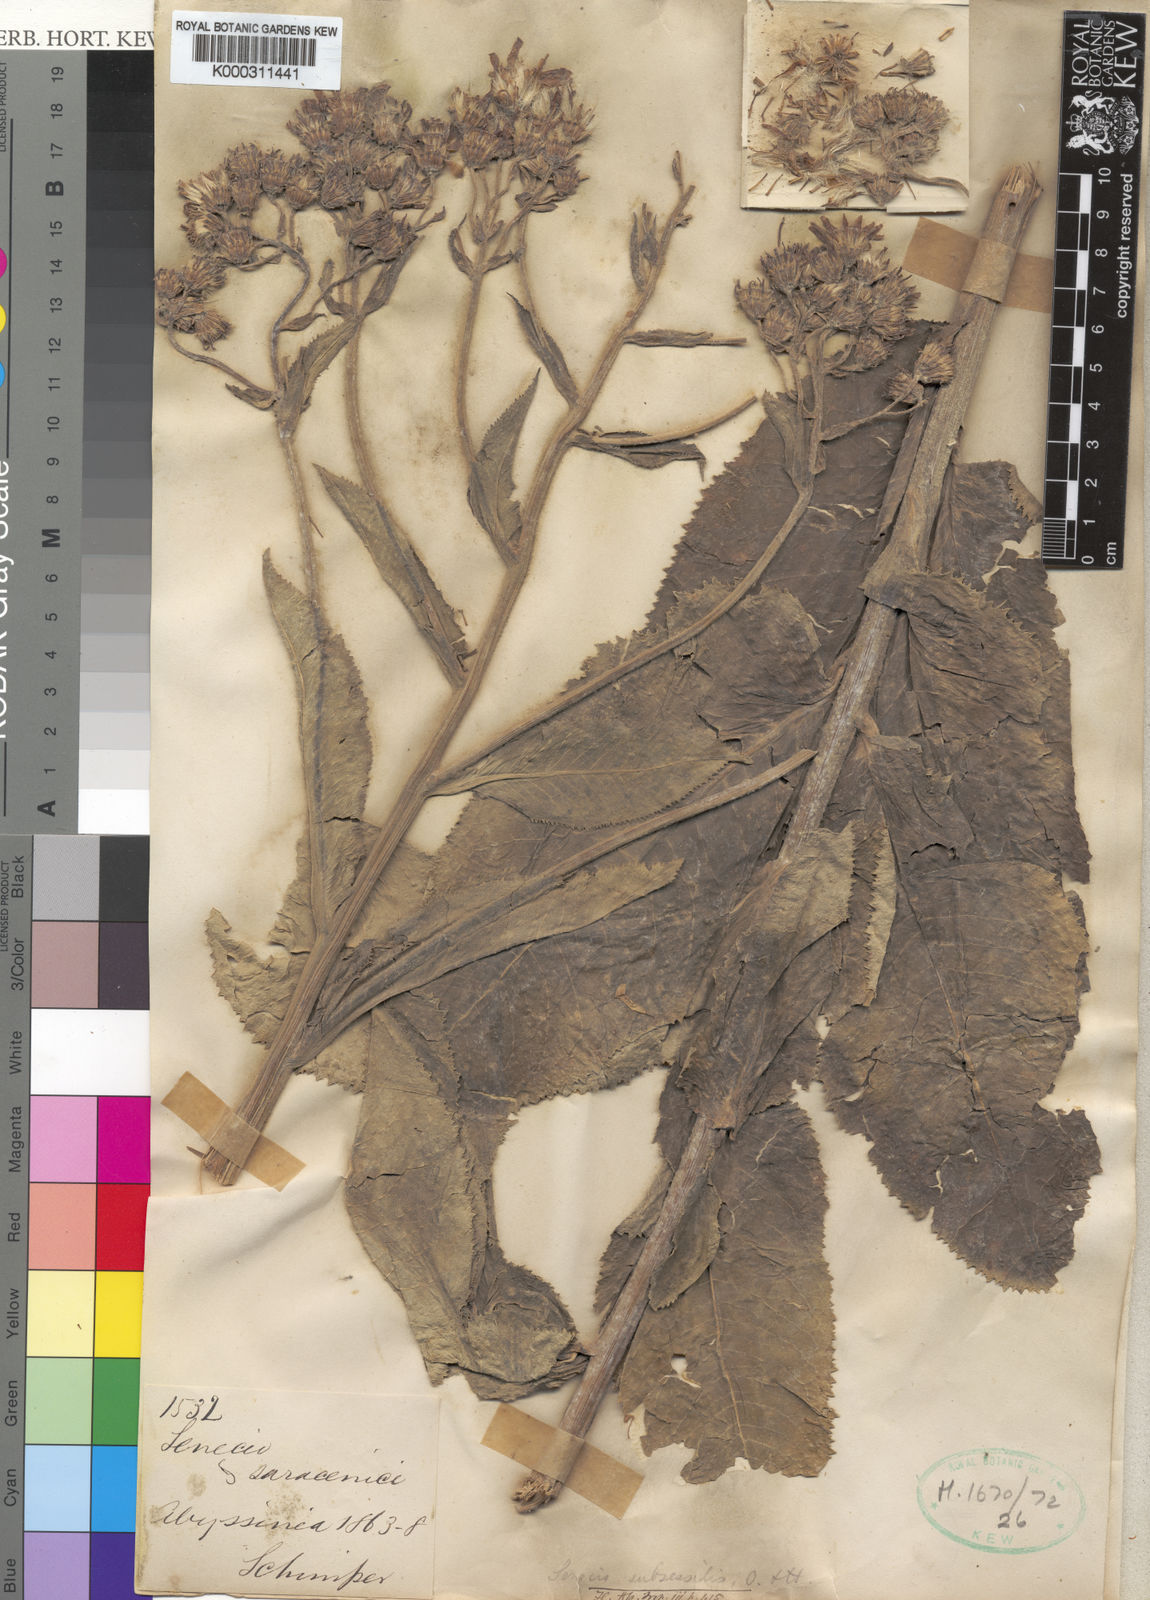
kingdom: Plantae
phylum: Tracheophyta
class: Magnoliopsida
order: Asterales
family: Asteraceae
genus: Senecio
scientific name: Senecio subsessilis
